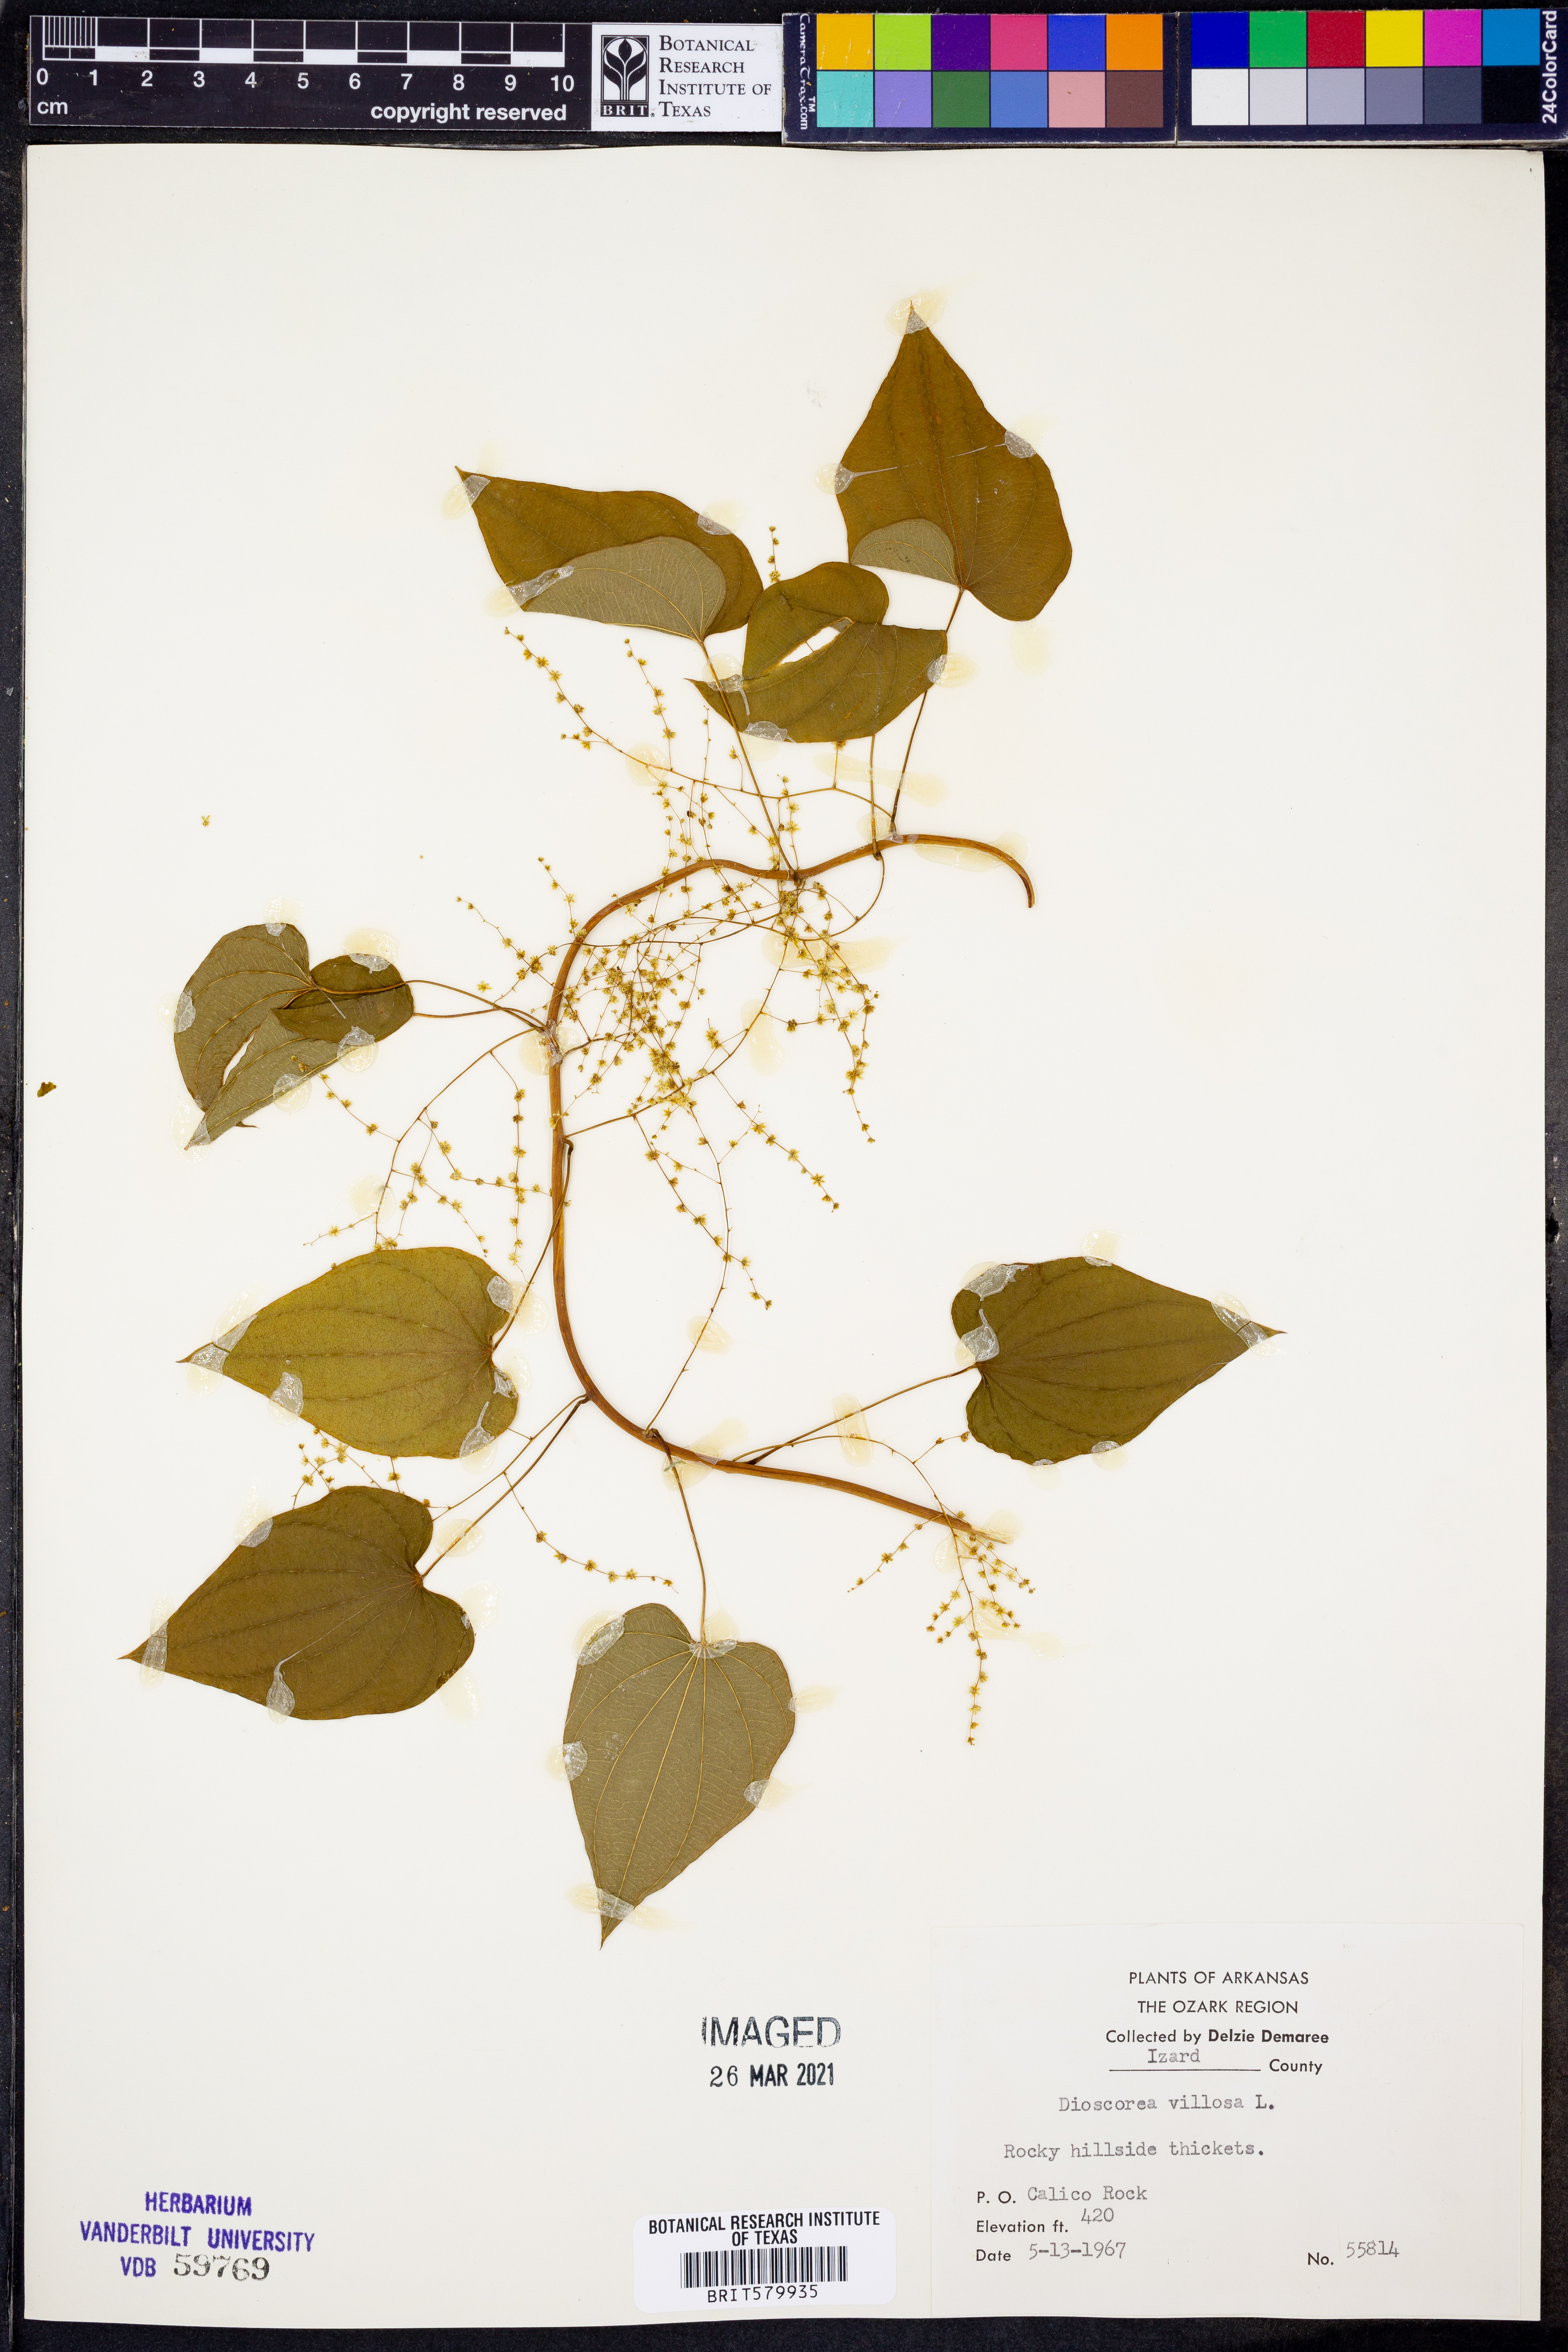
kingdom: Plantae
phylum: Tracheophyta
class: Liliopsida
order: Dioscoreales
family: Dioscoreaceae
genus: Dioscorea
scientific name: Dioscorea villosa
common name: Wild yam
